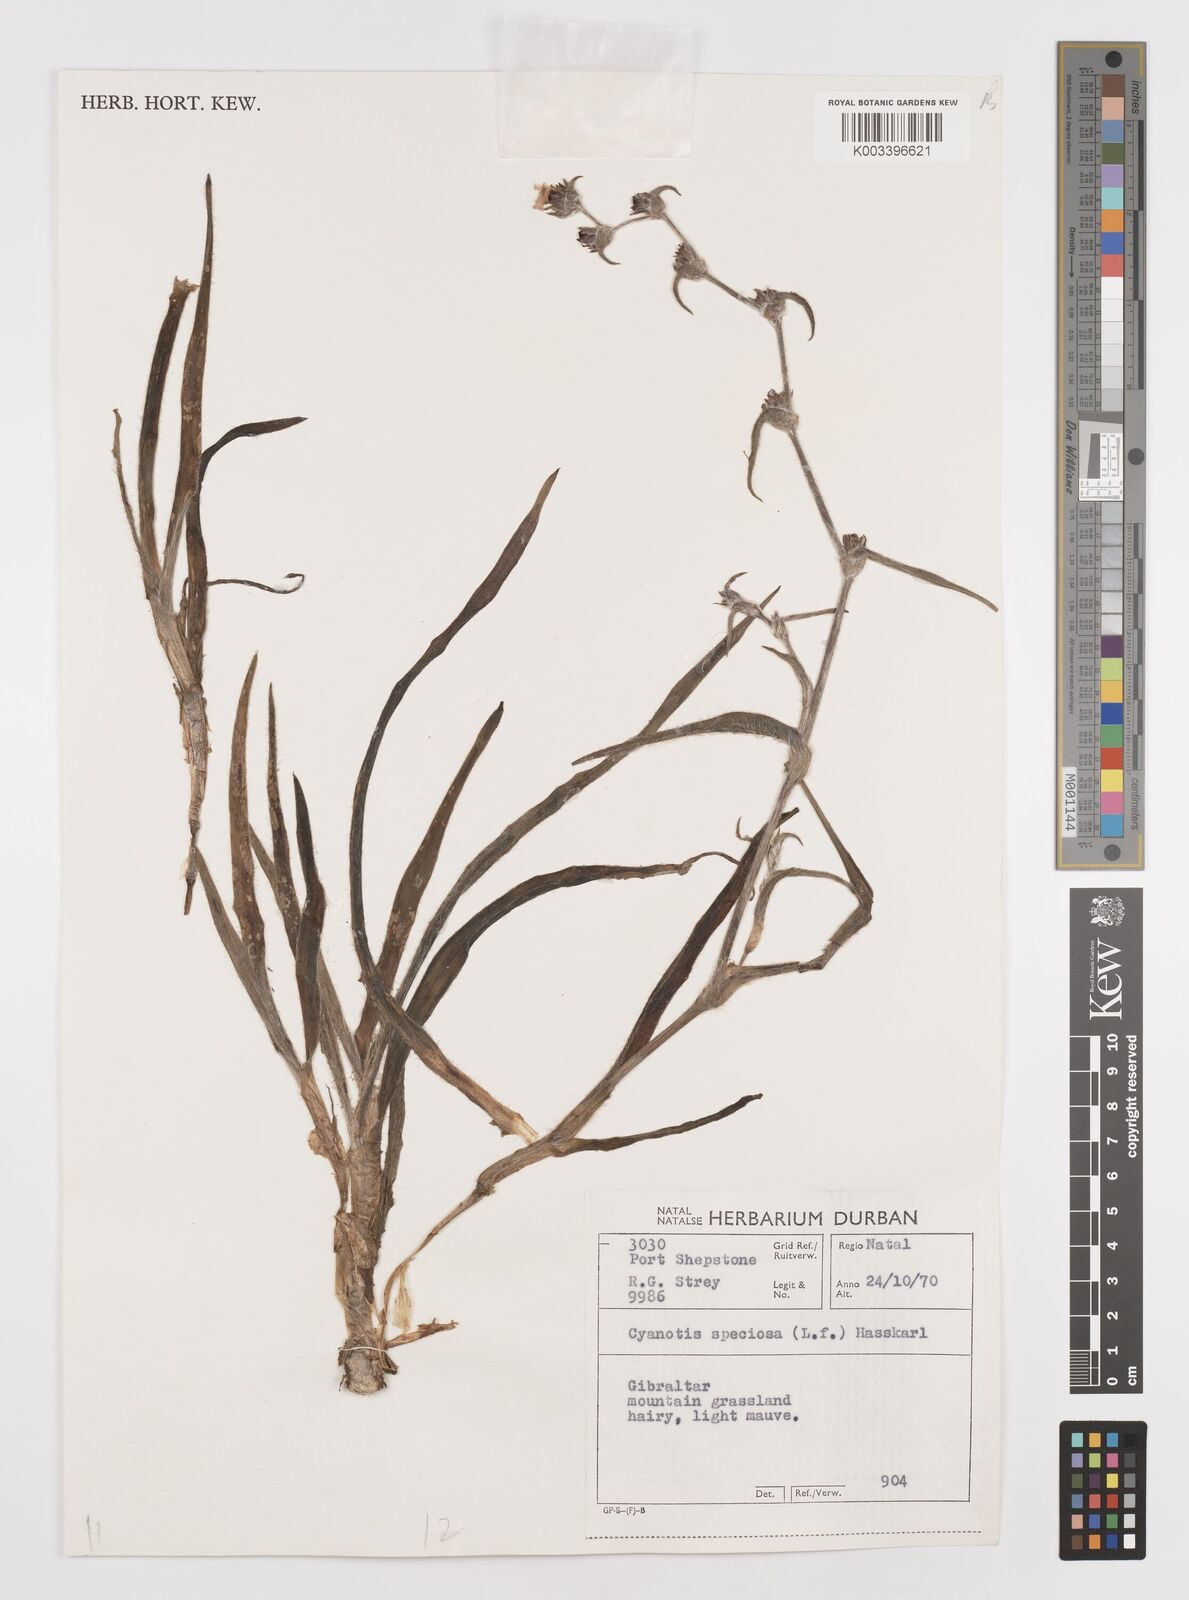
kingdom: Plantae
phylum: Tracheophyta
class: Liliopsida
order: Commelinales
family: Commelinaceae
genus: Cyanotis
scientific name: Cyanotis speciosa
